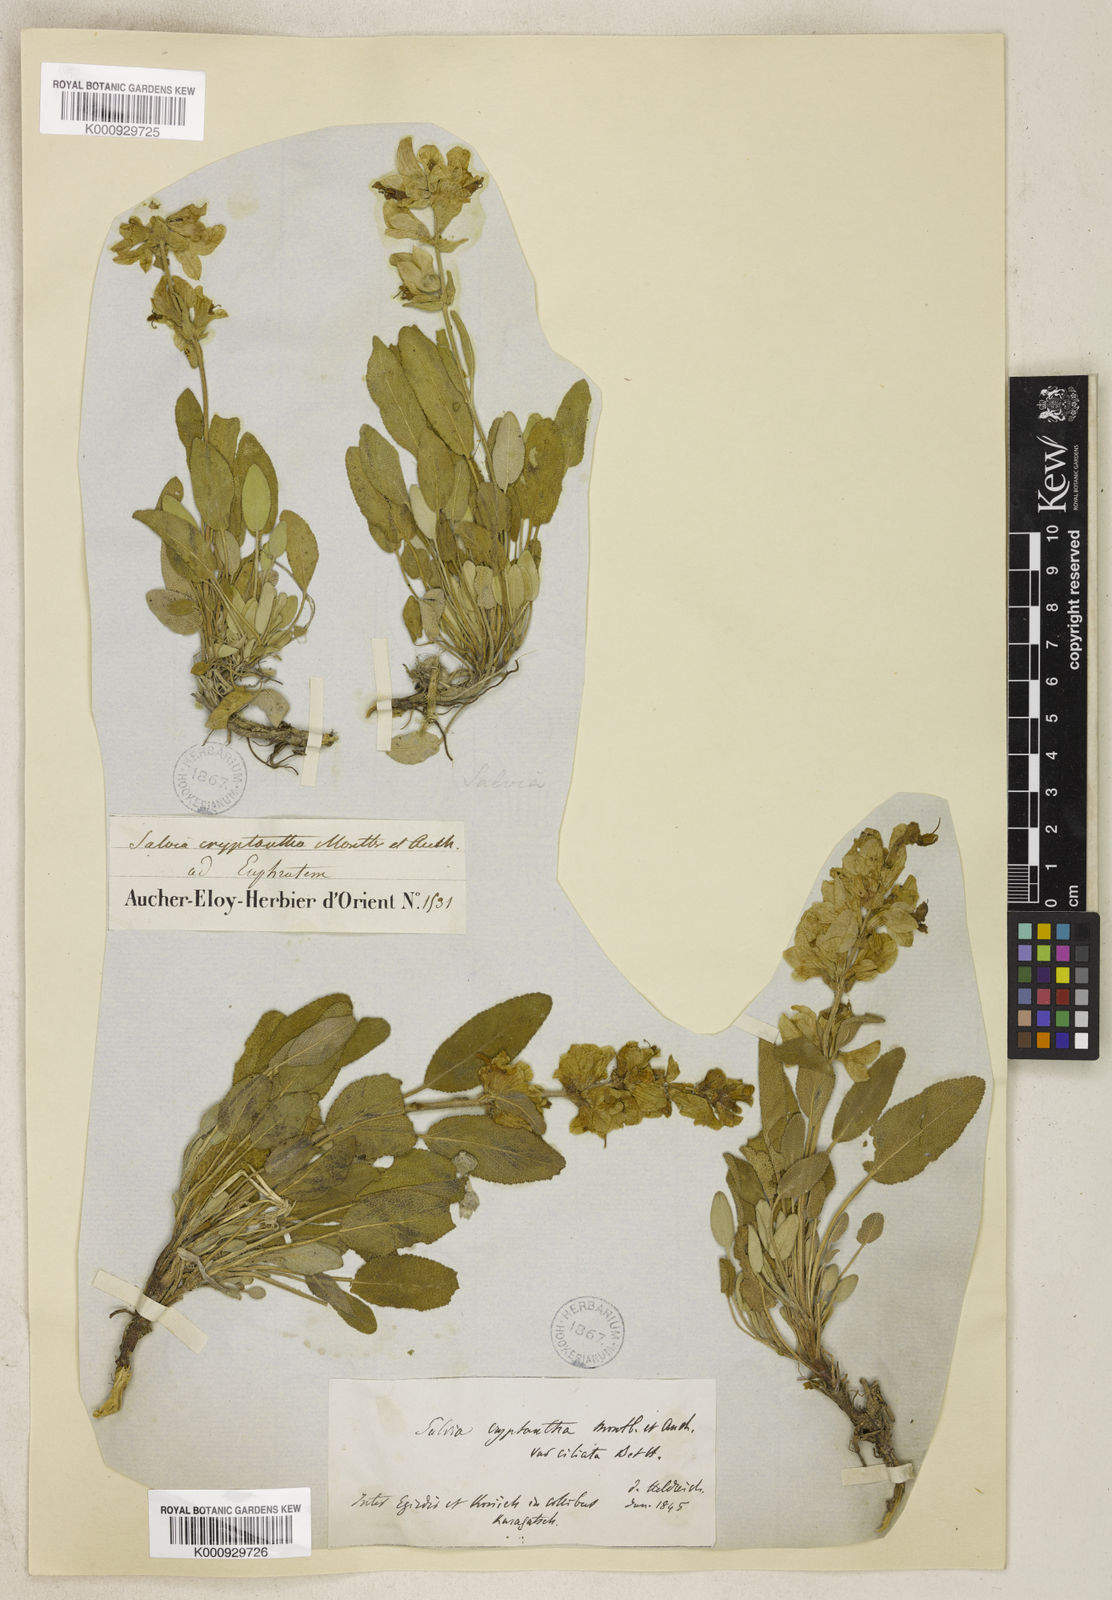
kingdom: Plantae
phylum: Tracheophyta
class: Magnoliopsida
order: Lamiales
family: Lamiaceae
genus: Salvia
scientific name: Salvia absconditiflora
